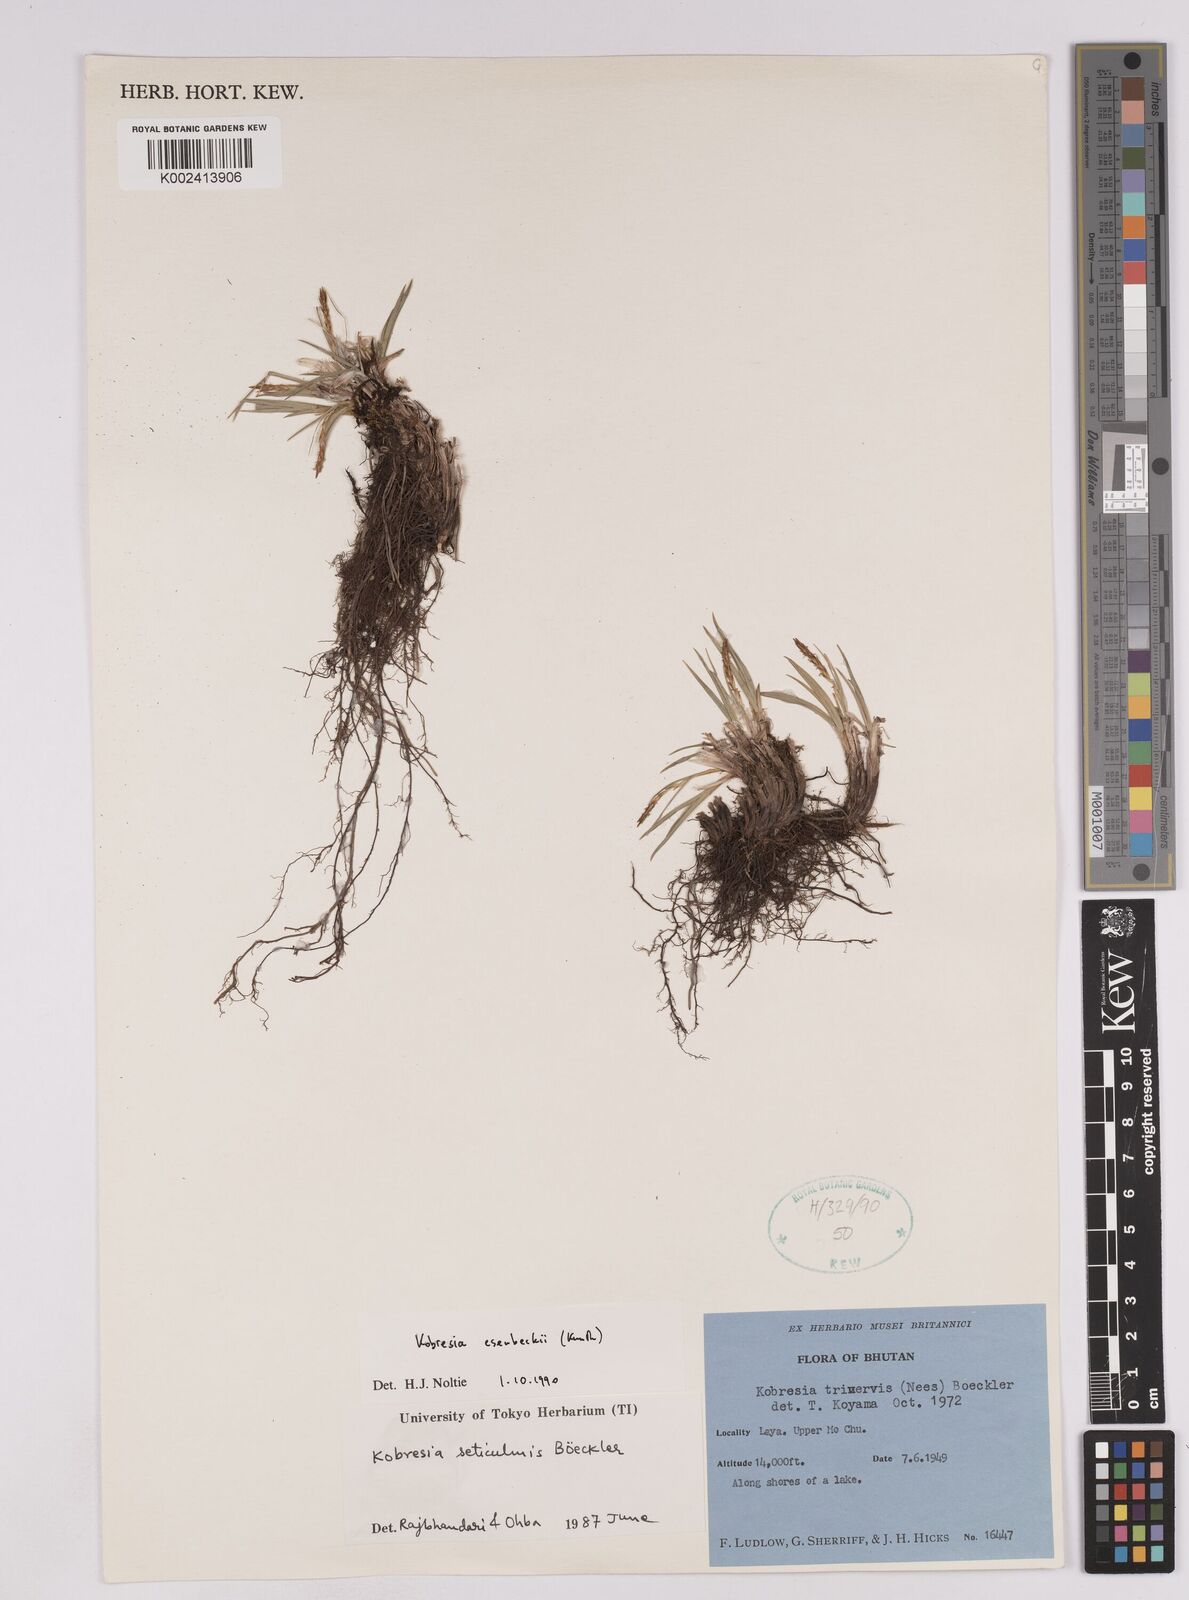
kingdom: Plantae
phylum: Tracheophyta
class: Liliopsida
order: Poales
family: Cyperaceae
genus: Carex
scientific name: Carex esenbeckii
